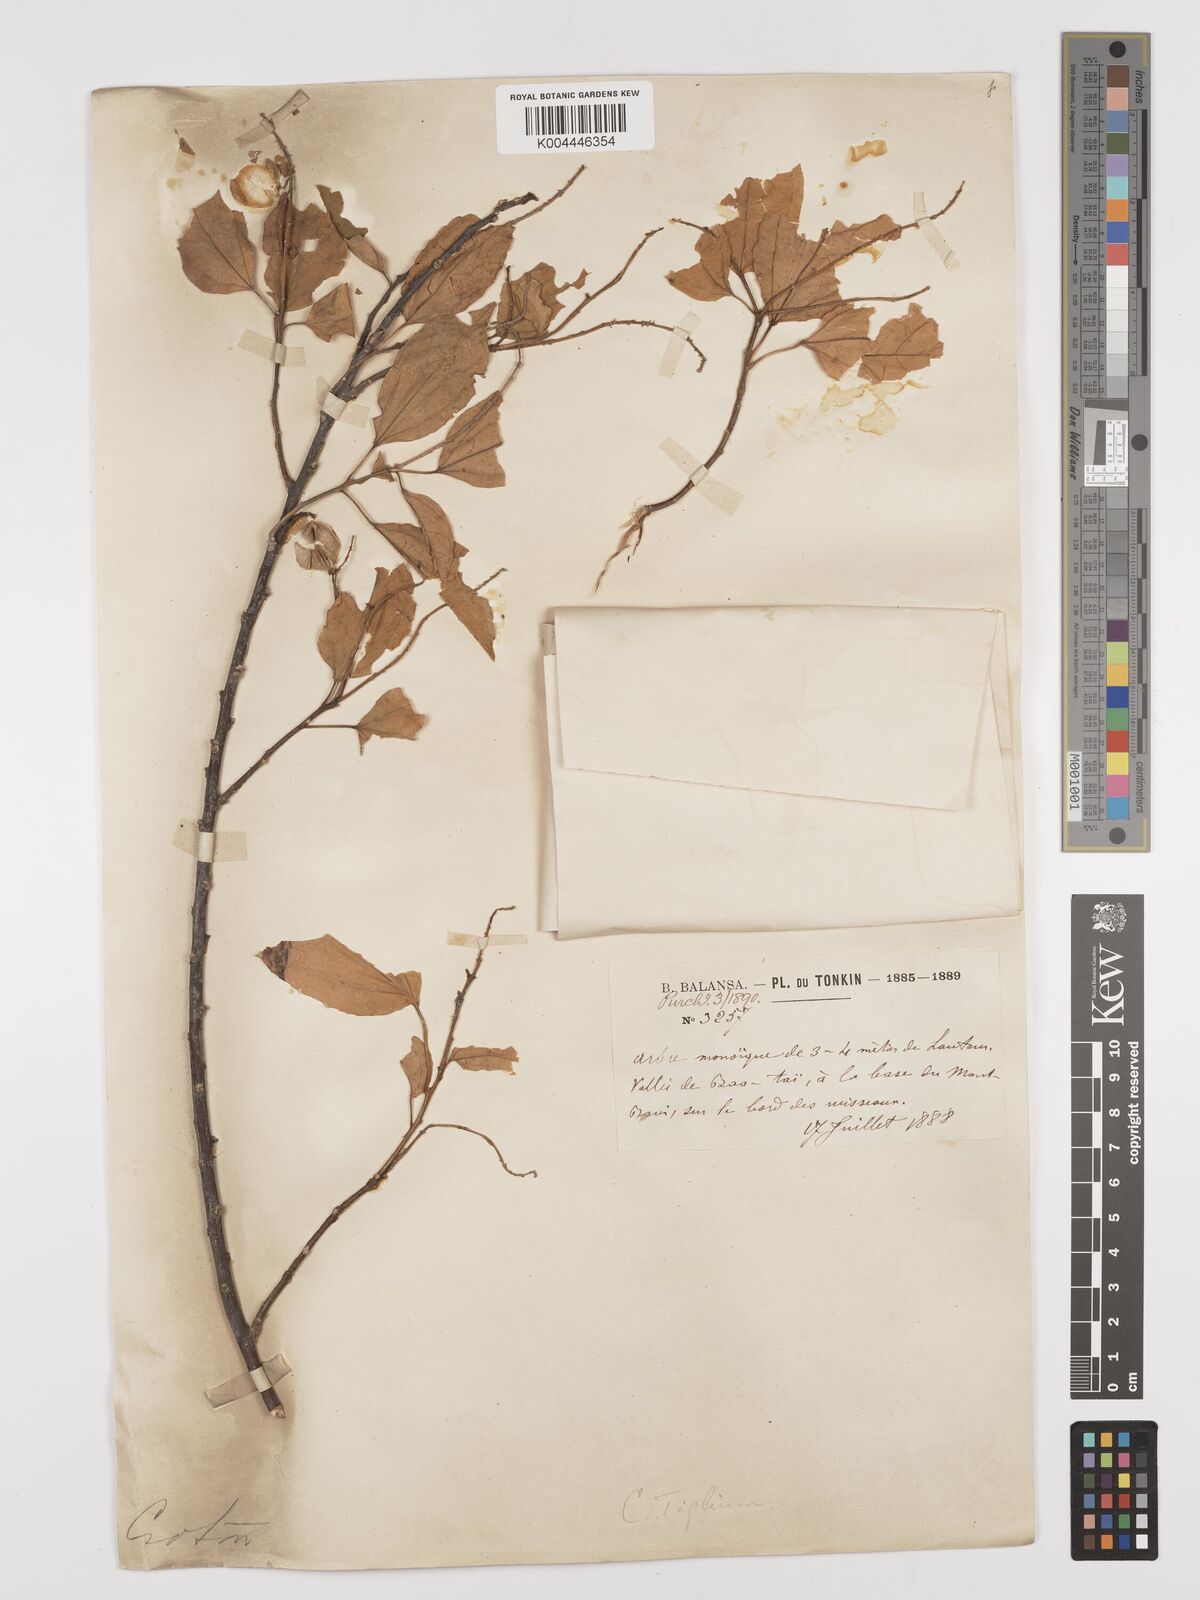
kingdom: Plantae
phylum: Tracheophyta
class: Magnoliopsida
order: Malpighiales
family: Euphorbiaceae
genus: Croton
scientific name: Croton tiglium
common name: Purging croton
